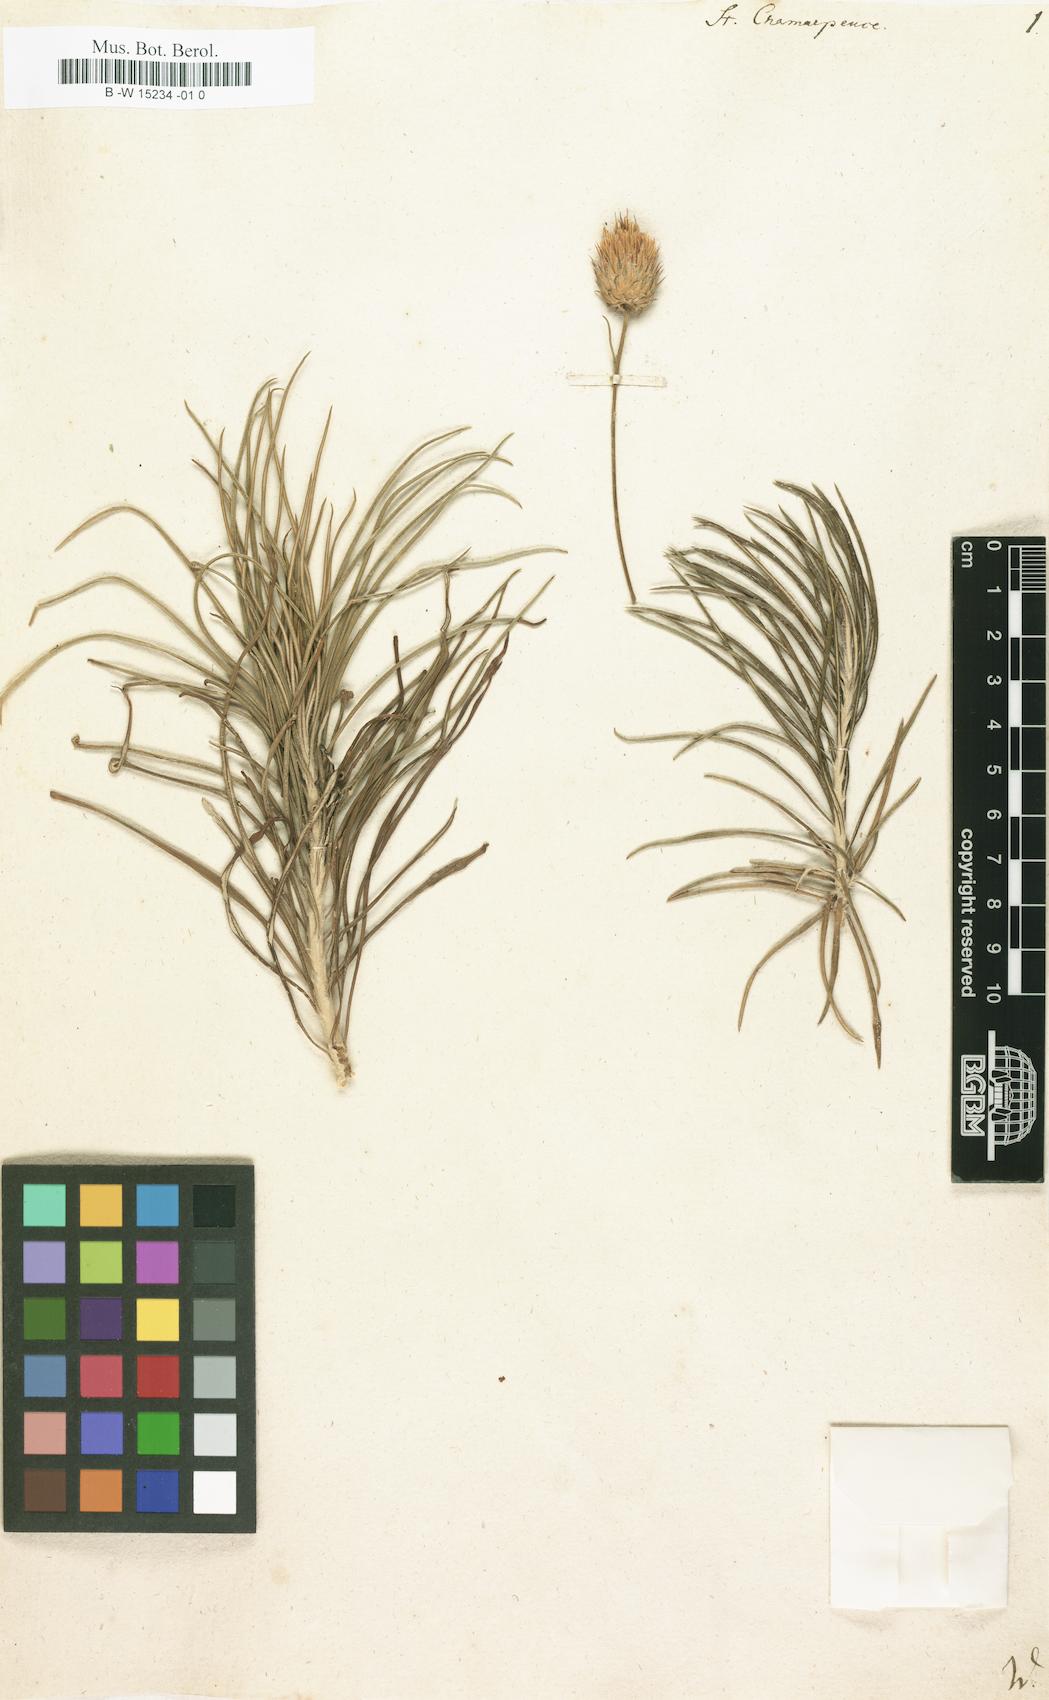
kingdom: Plantae
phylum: Tracheophyta
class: Magnoliopsida
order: Asterales
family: Asteraceae
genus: Ptilostemon
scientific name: Ptilostemon
